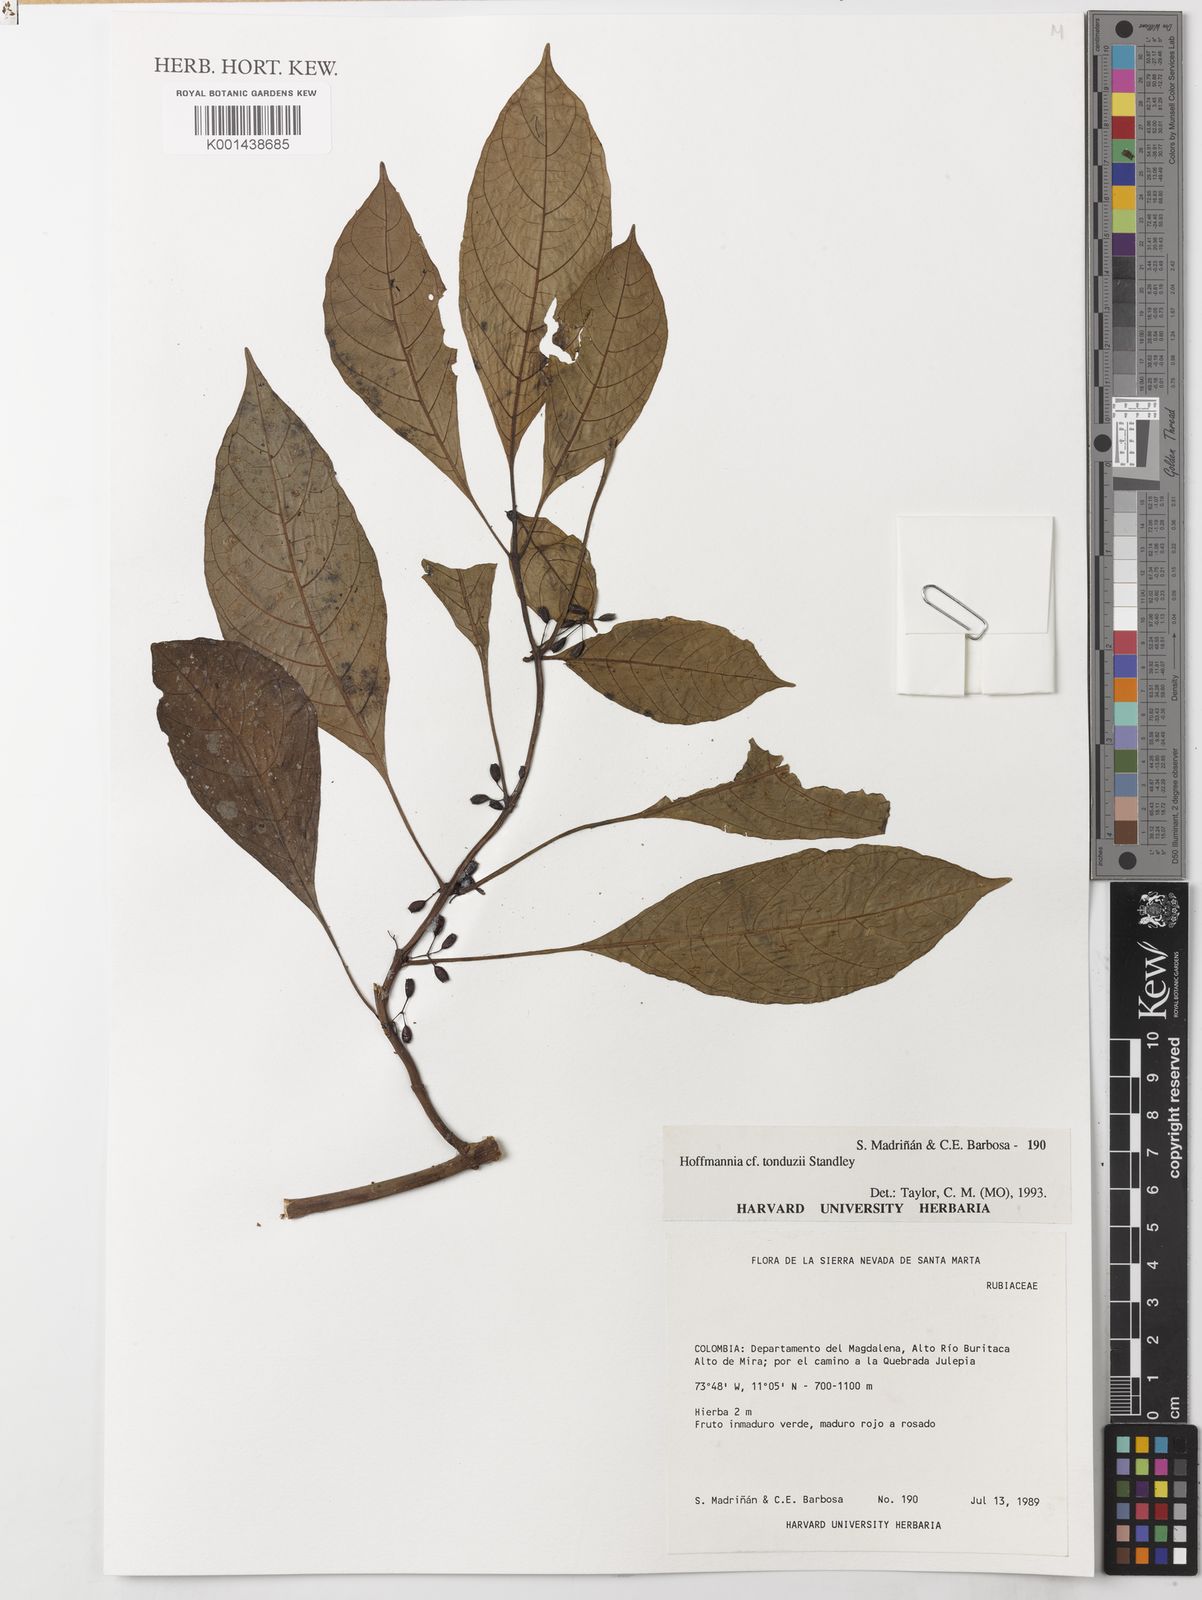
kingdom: Plantae
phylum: Tracheophyta
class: Magnoliopsida
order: Gentianales
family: Rubiaceae
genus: Hoffmannia
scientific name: Hoffmannia longepetiolata
